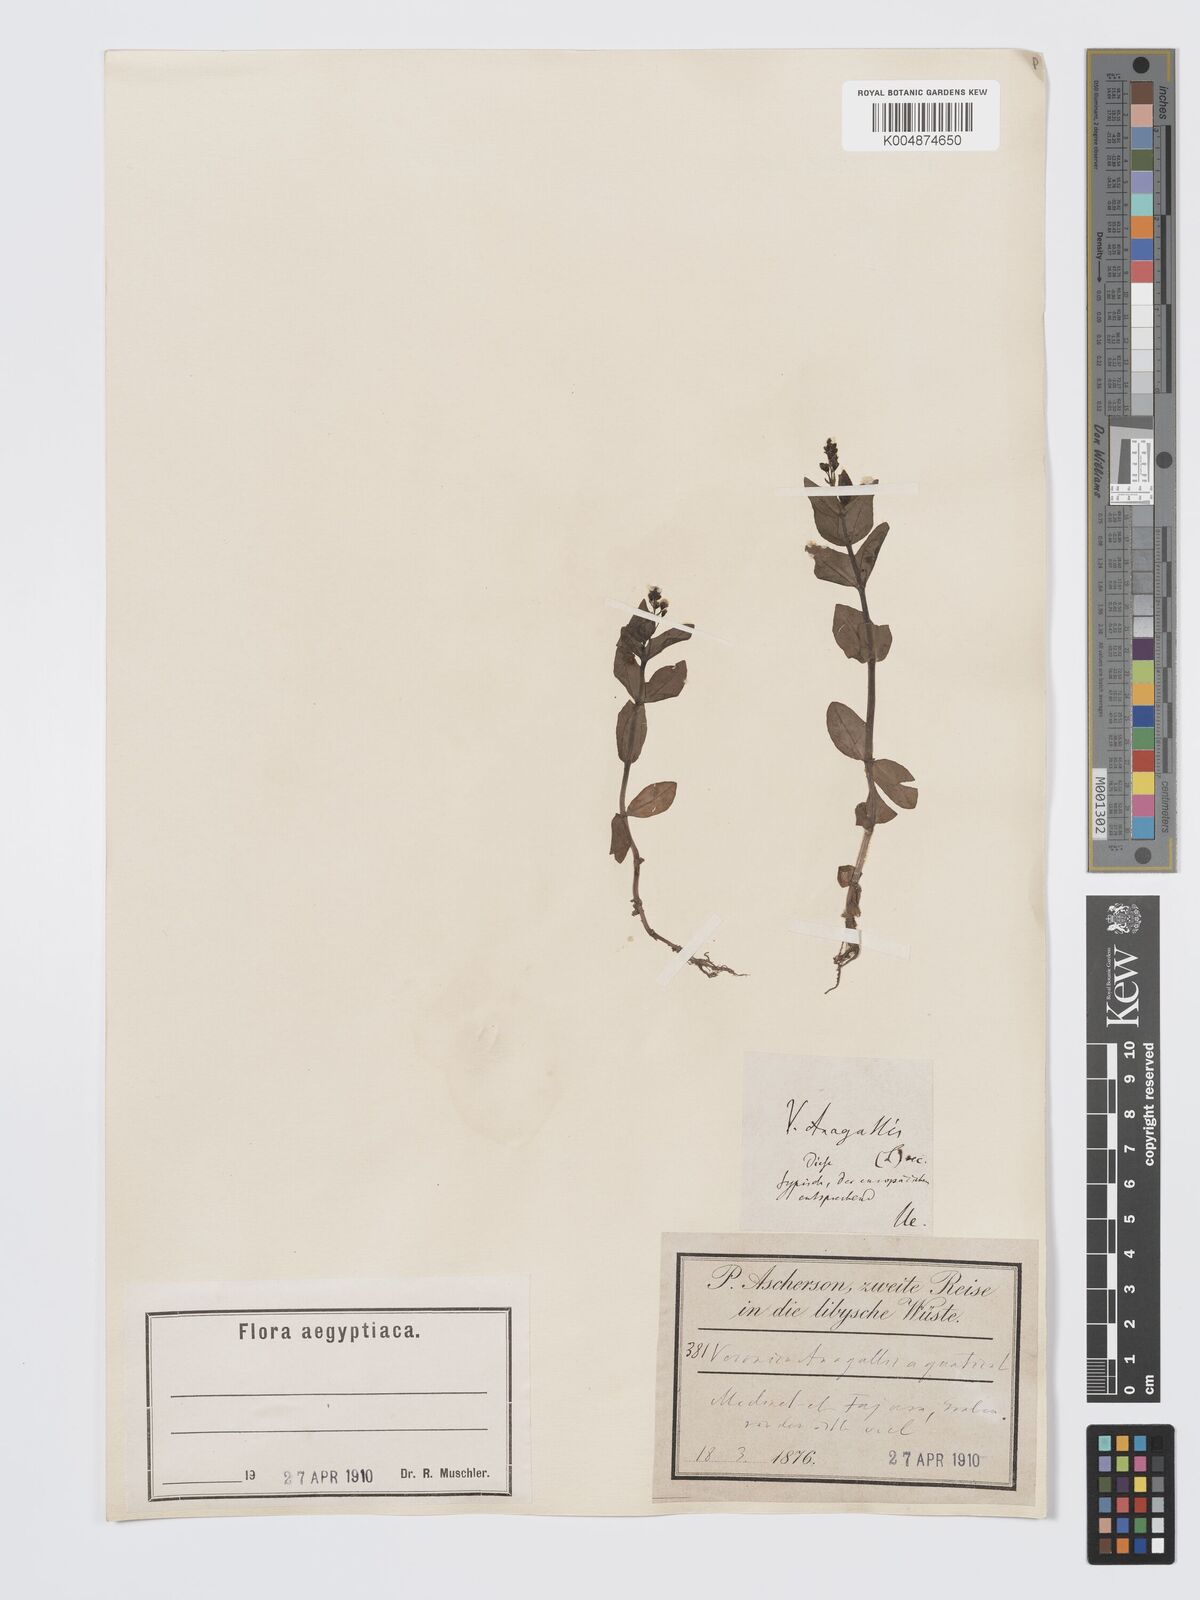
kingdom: Plantae
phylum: Tracheophyta
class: Magnoliopsida
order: Lamiales
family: Plantaginaceae
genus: Veronica
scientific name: Veronica
